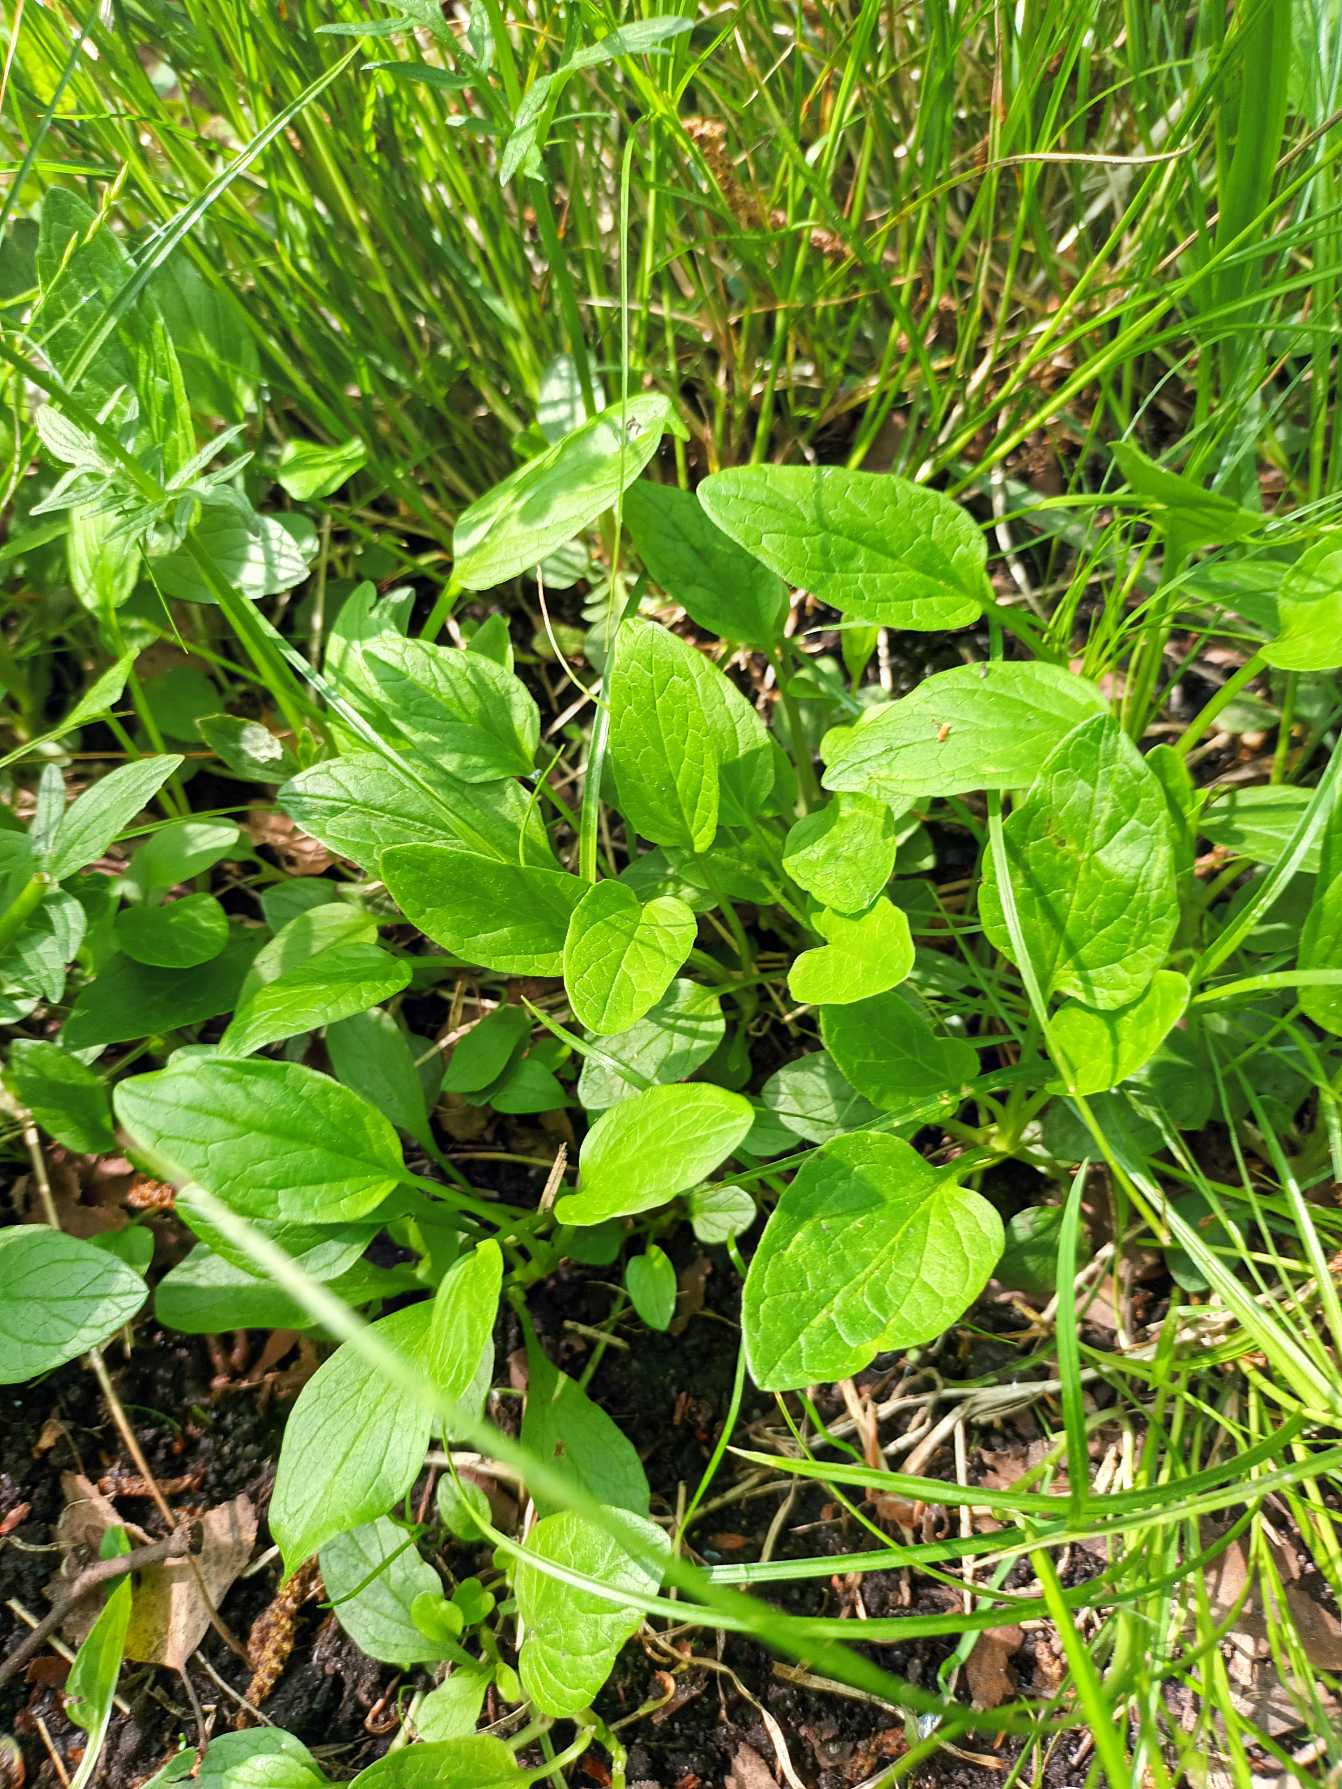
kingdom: Plantae
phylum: Tracheophyta
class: Magnoliopsida
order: Dipsacales
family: Caprifoliaceae
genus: Valeriana
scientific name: Valeriana dioica
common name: Tvebo baldrian
